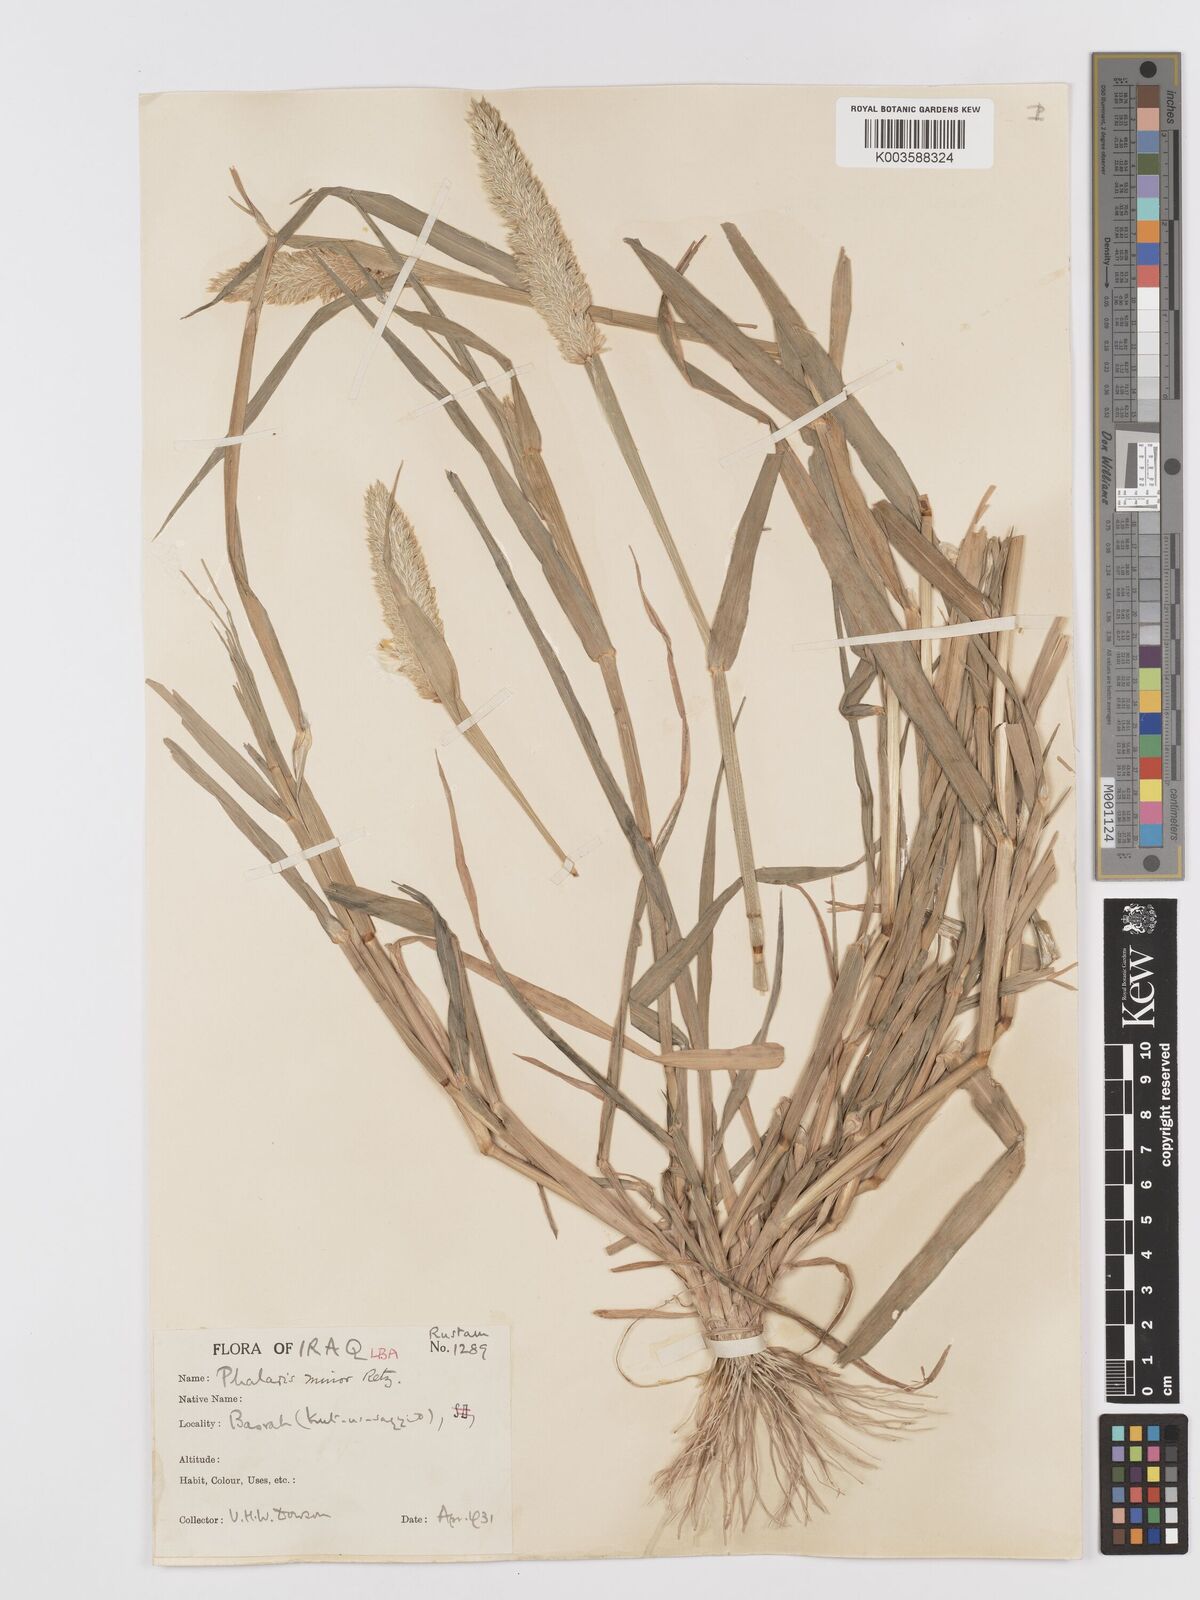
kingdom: Plantae
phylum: Tracheophyta
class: Liliopsida
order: Poales
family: Poaceae
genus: Phalaris
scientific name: Phalaris minor
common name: Littleseed canarygrass
